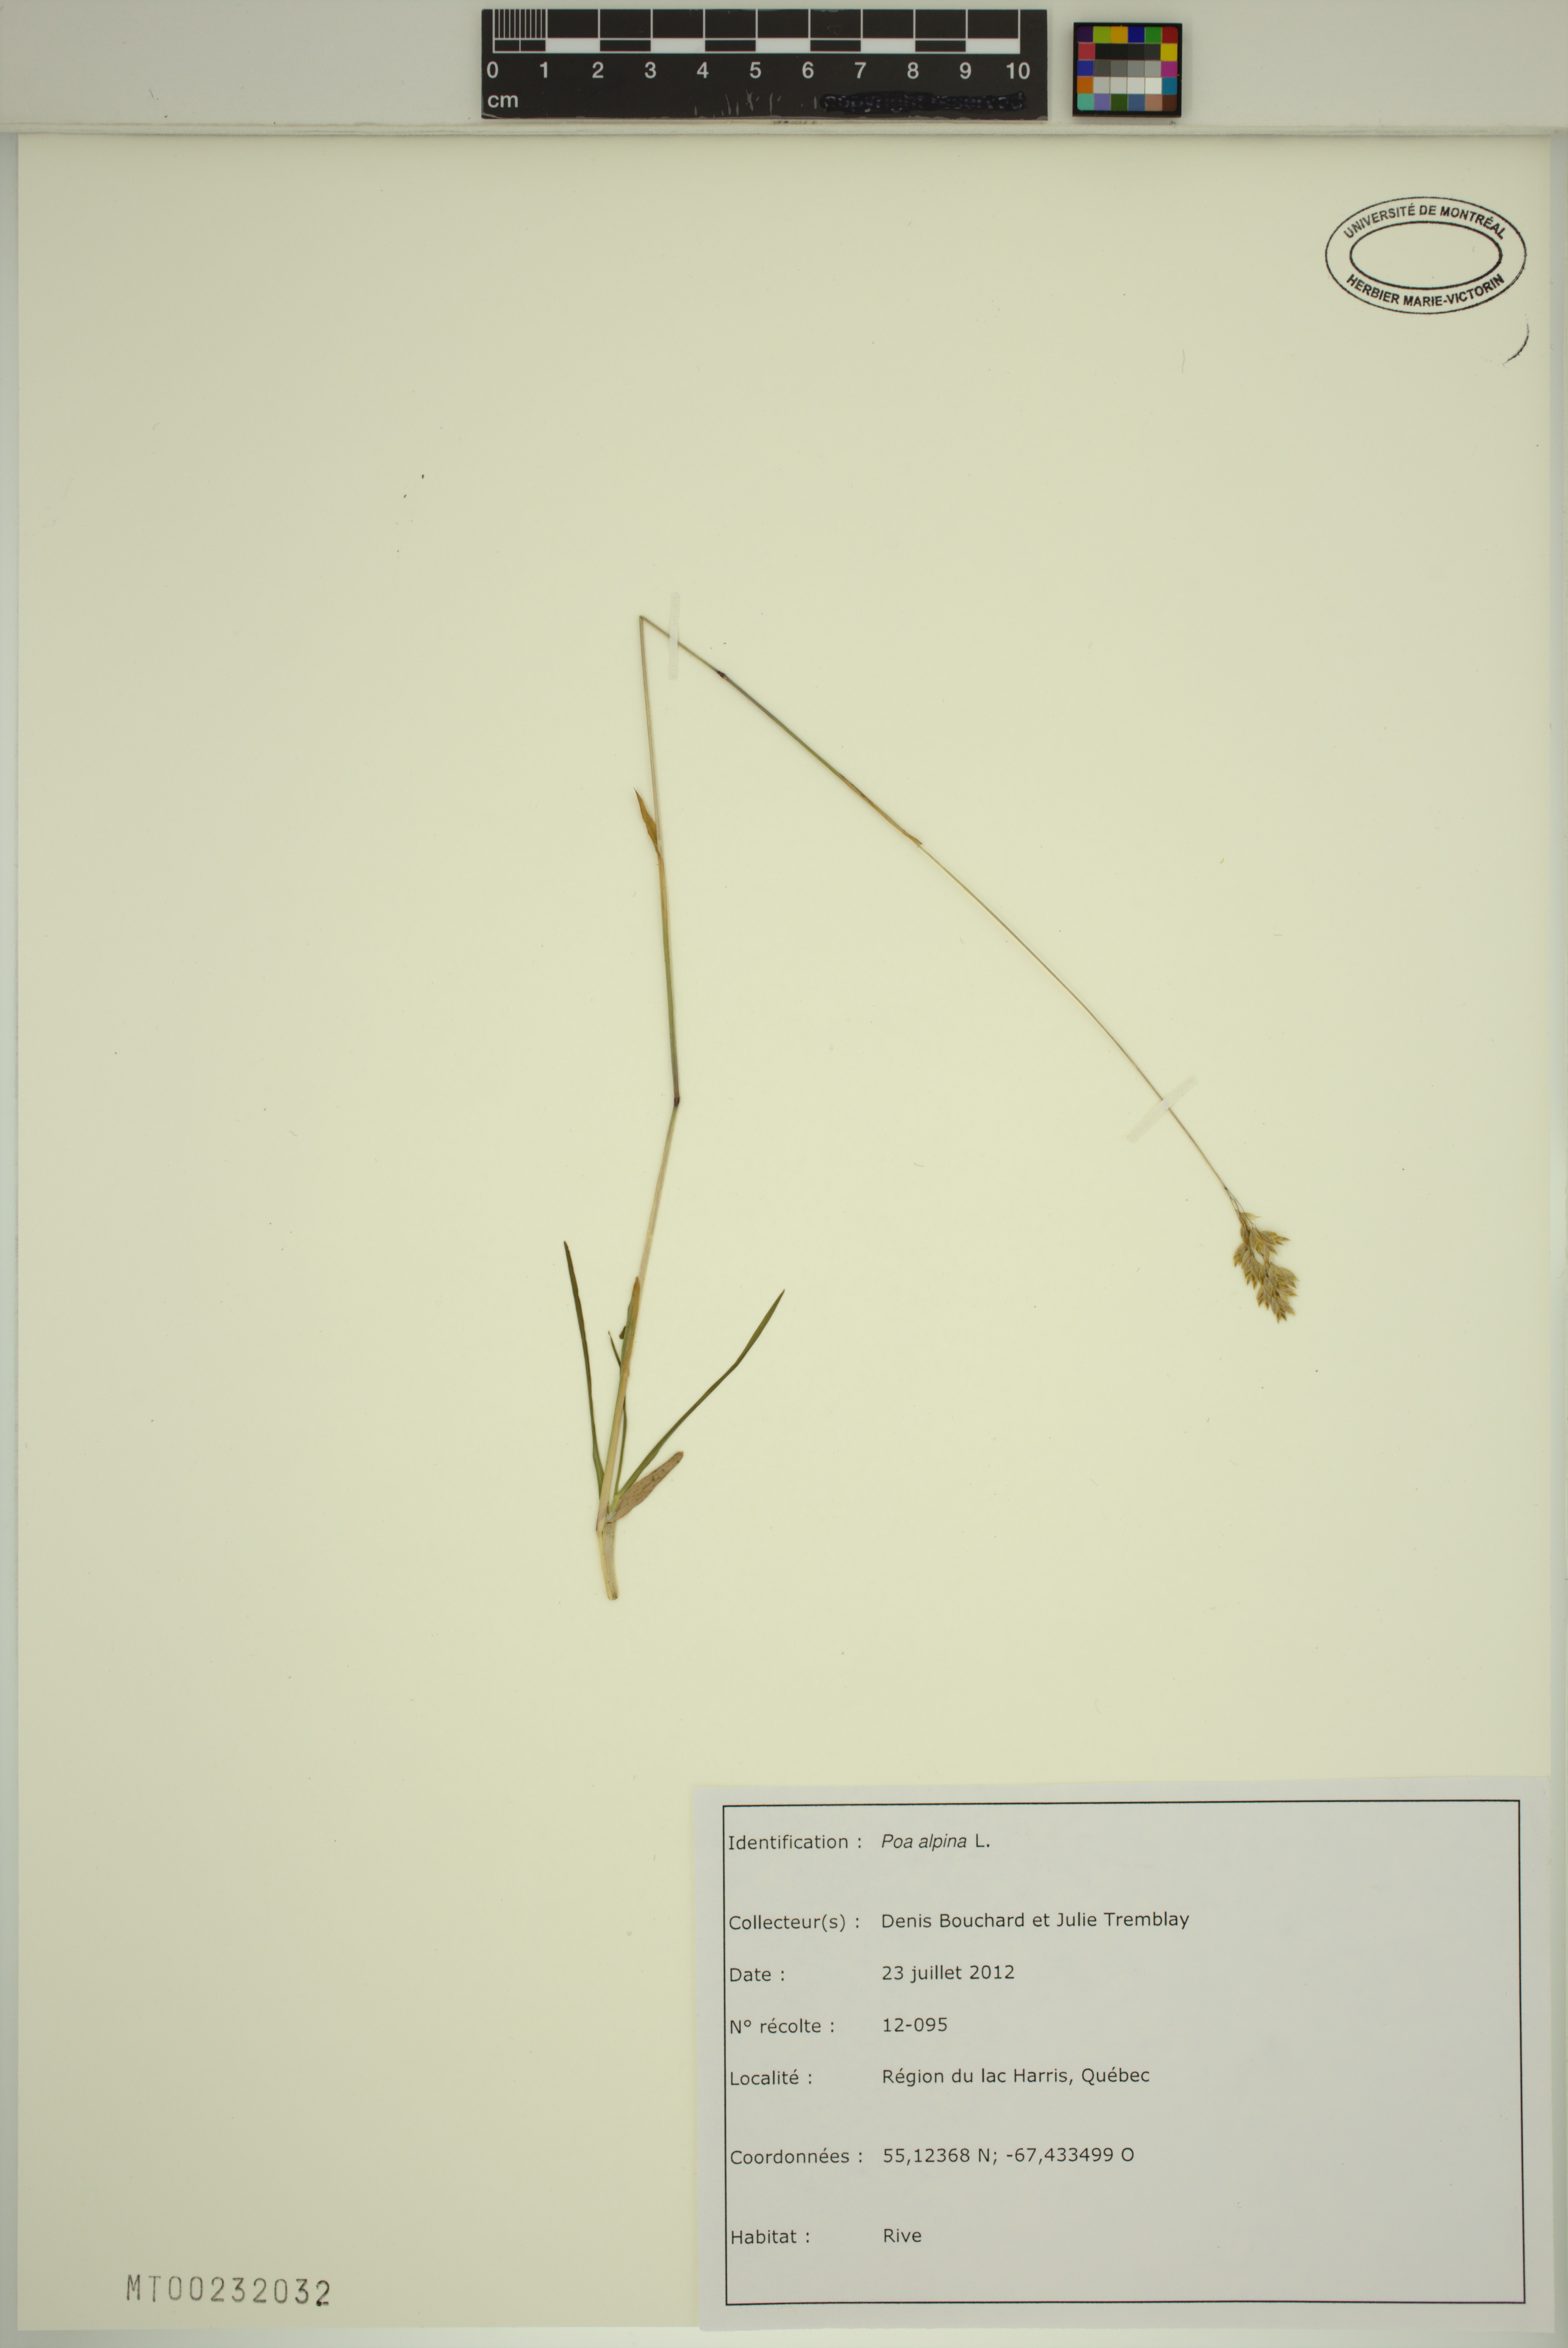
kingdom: Plantae
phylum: Tracheophyta
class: Liliopsida
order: Poales
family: Poaceae
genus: Poa
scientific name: Poa alpina
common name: Alpine bluegrass
